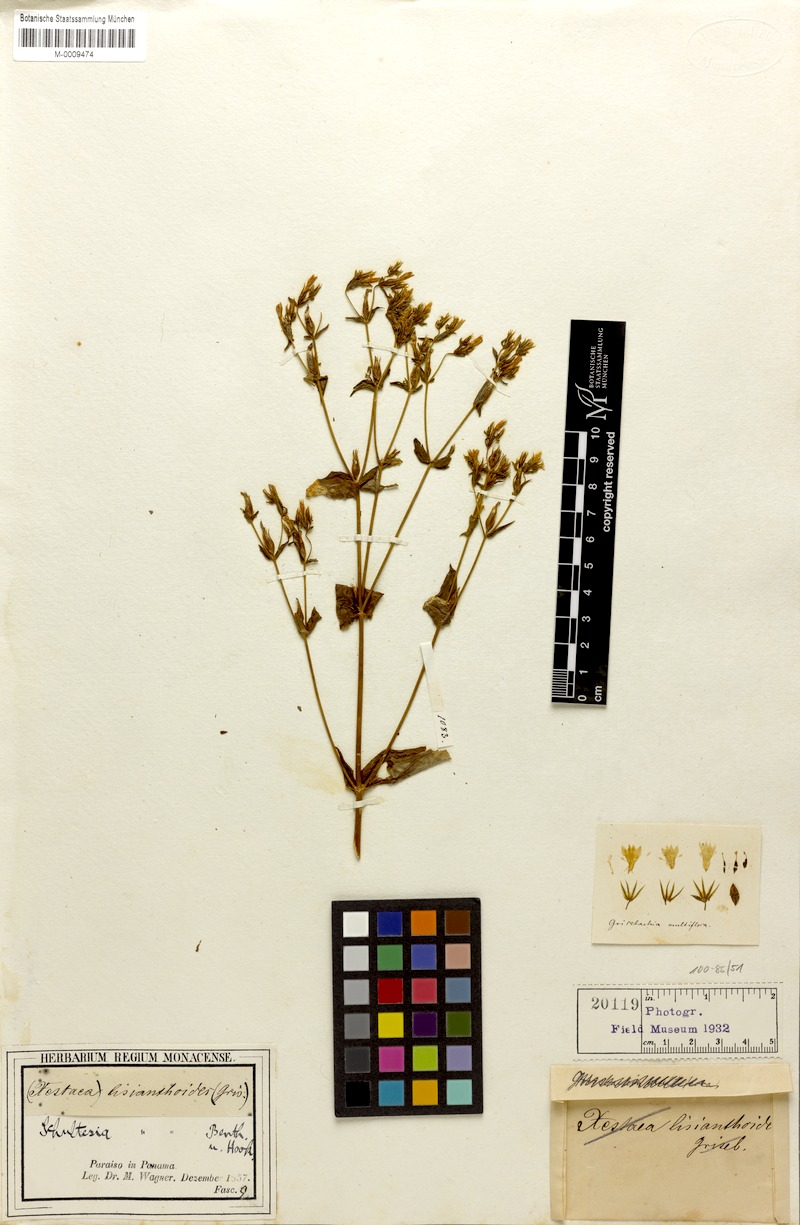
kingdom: Plantae
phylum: Tracheophyta
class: Magnoliopsida
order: Gentianales
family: Gentianaceae
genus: Schultesia
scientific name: Schultesia lisianthoides
